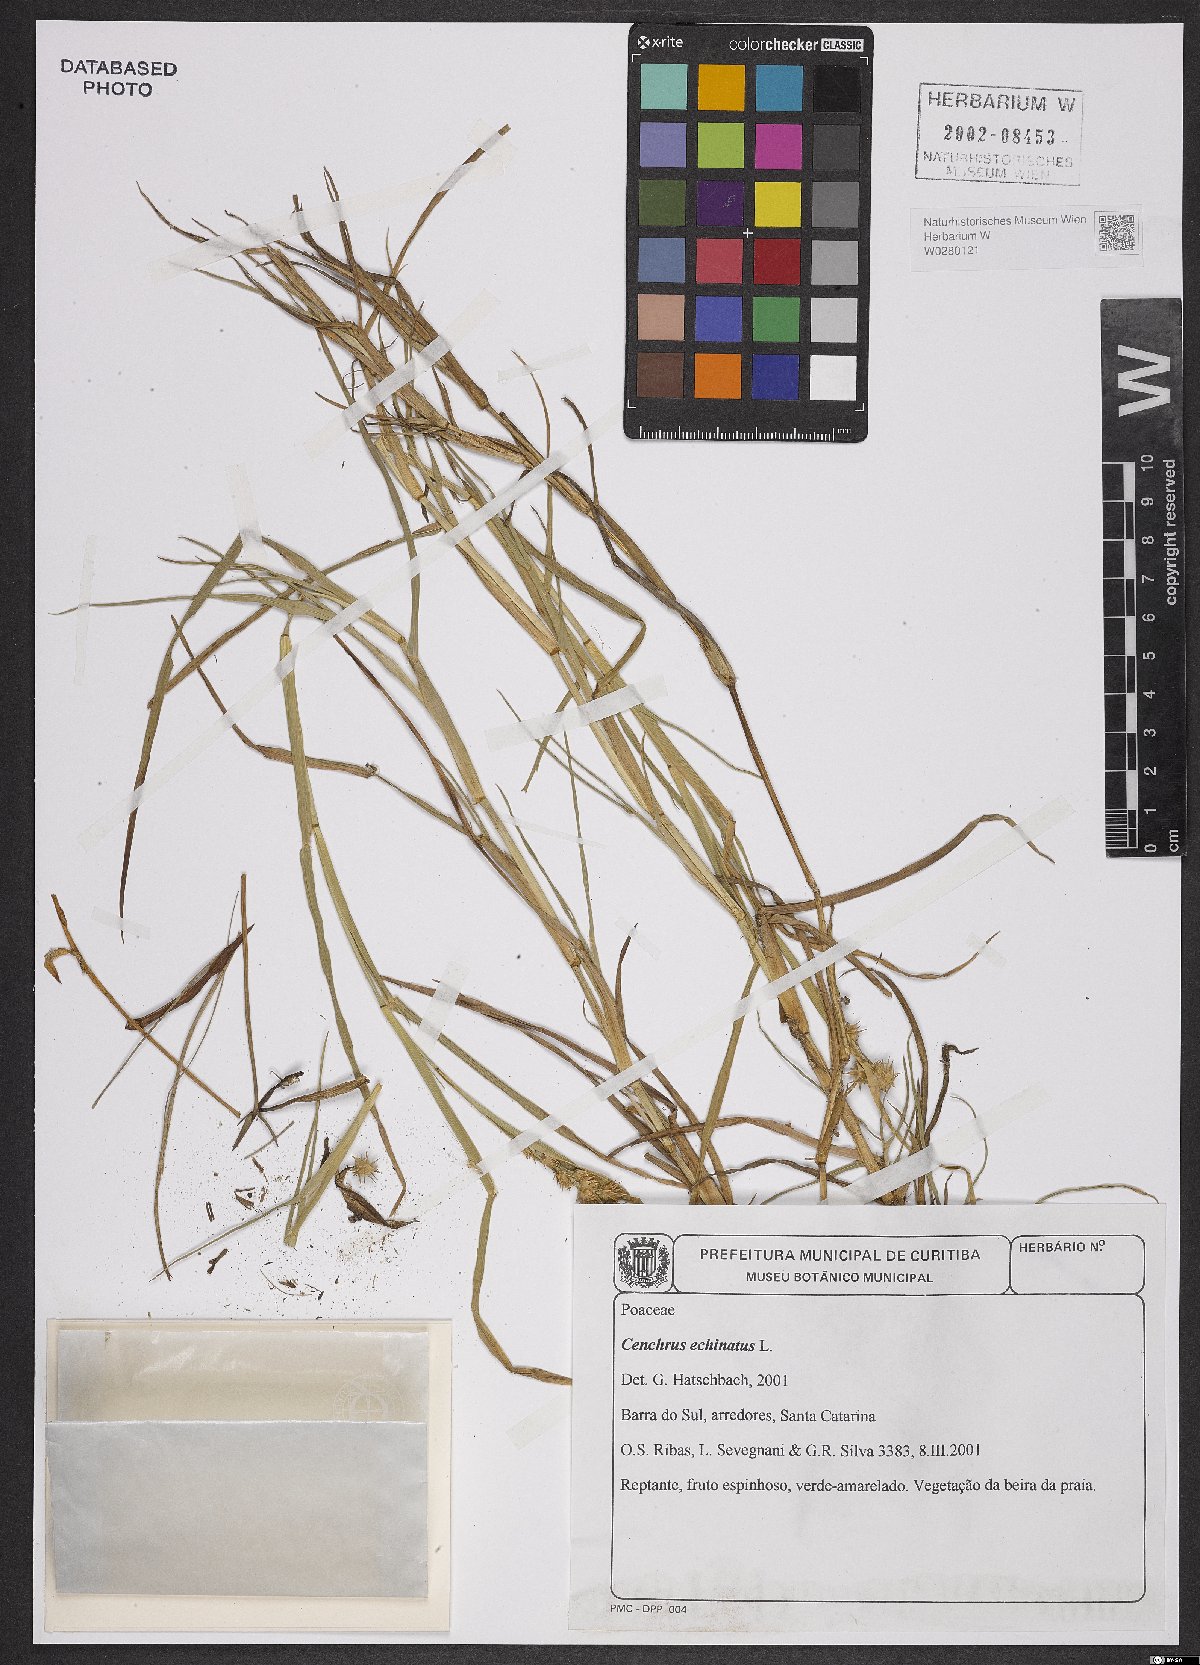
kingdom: Plantae
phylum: Tracheophyta
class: Liliopsida
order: Poales
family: Poaceae
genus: Cenchrus
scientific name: Cenchrus echinatus
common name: Southern sandbur
